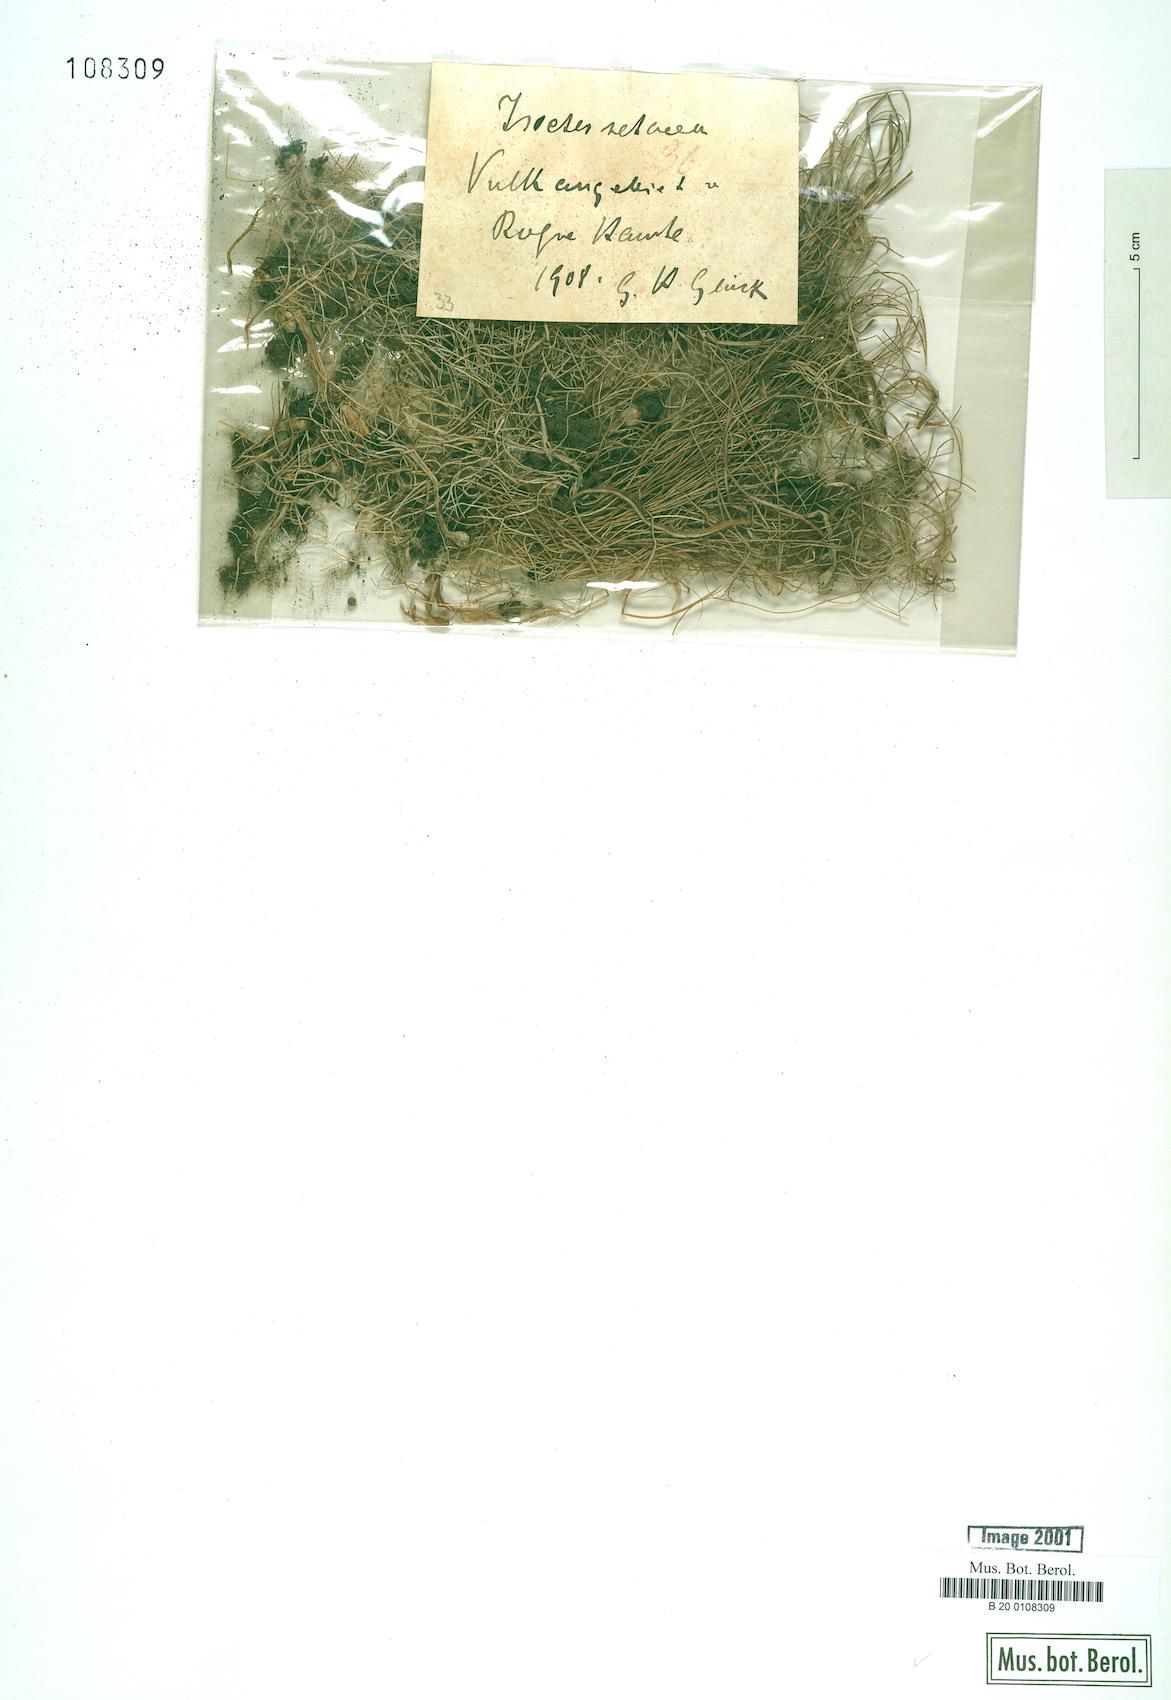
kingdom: Plantae
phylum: Tracheophyta
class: Lycopodiopsida
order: Isoetales
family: Isoetaceae
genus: Isoetes
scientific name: Isoetes lacustris
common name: Common quillwort
